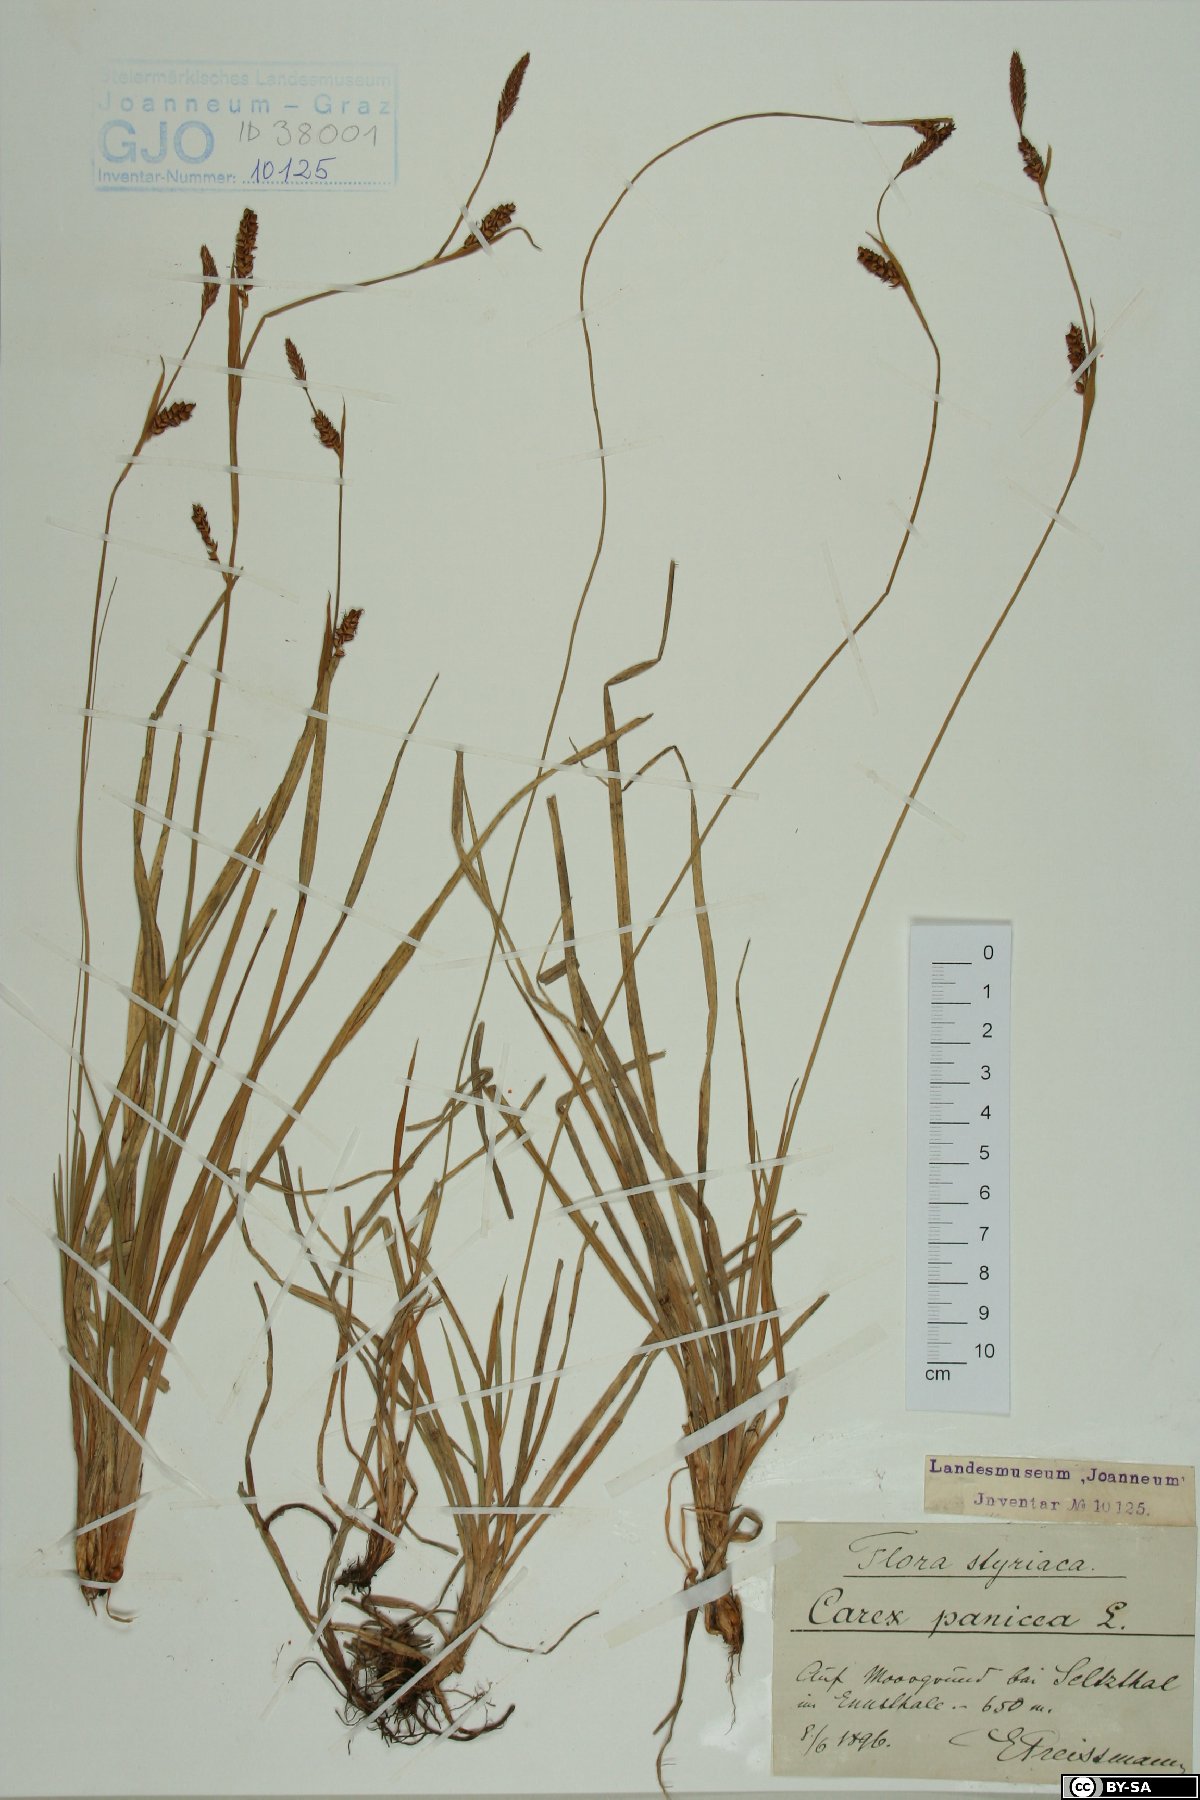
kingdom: Plantae
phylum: Tracheophyta
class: Liliopsida
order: Poales
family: Cyperaceae
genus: Carex
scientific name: Carex panicea
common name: Carnation sedge
